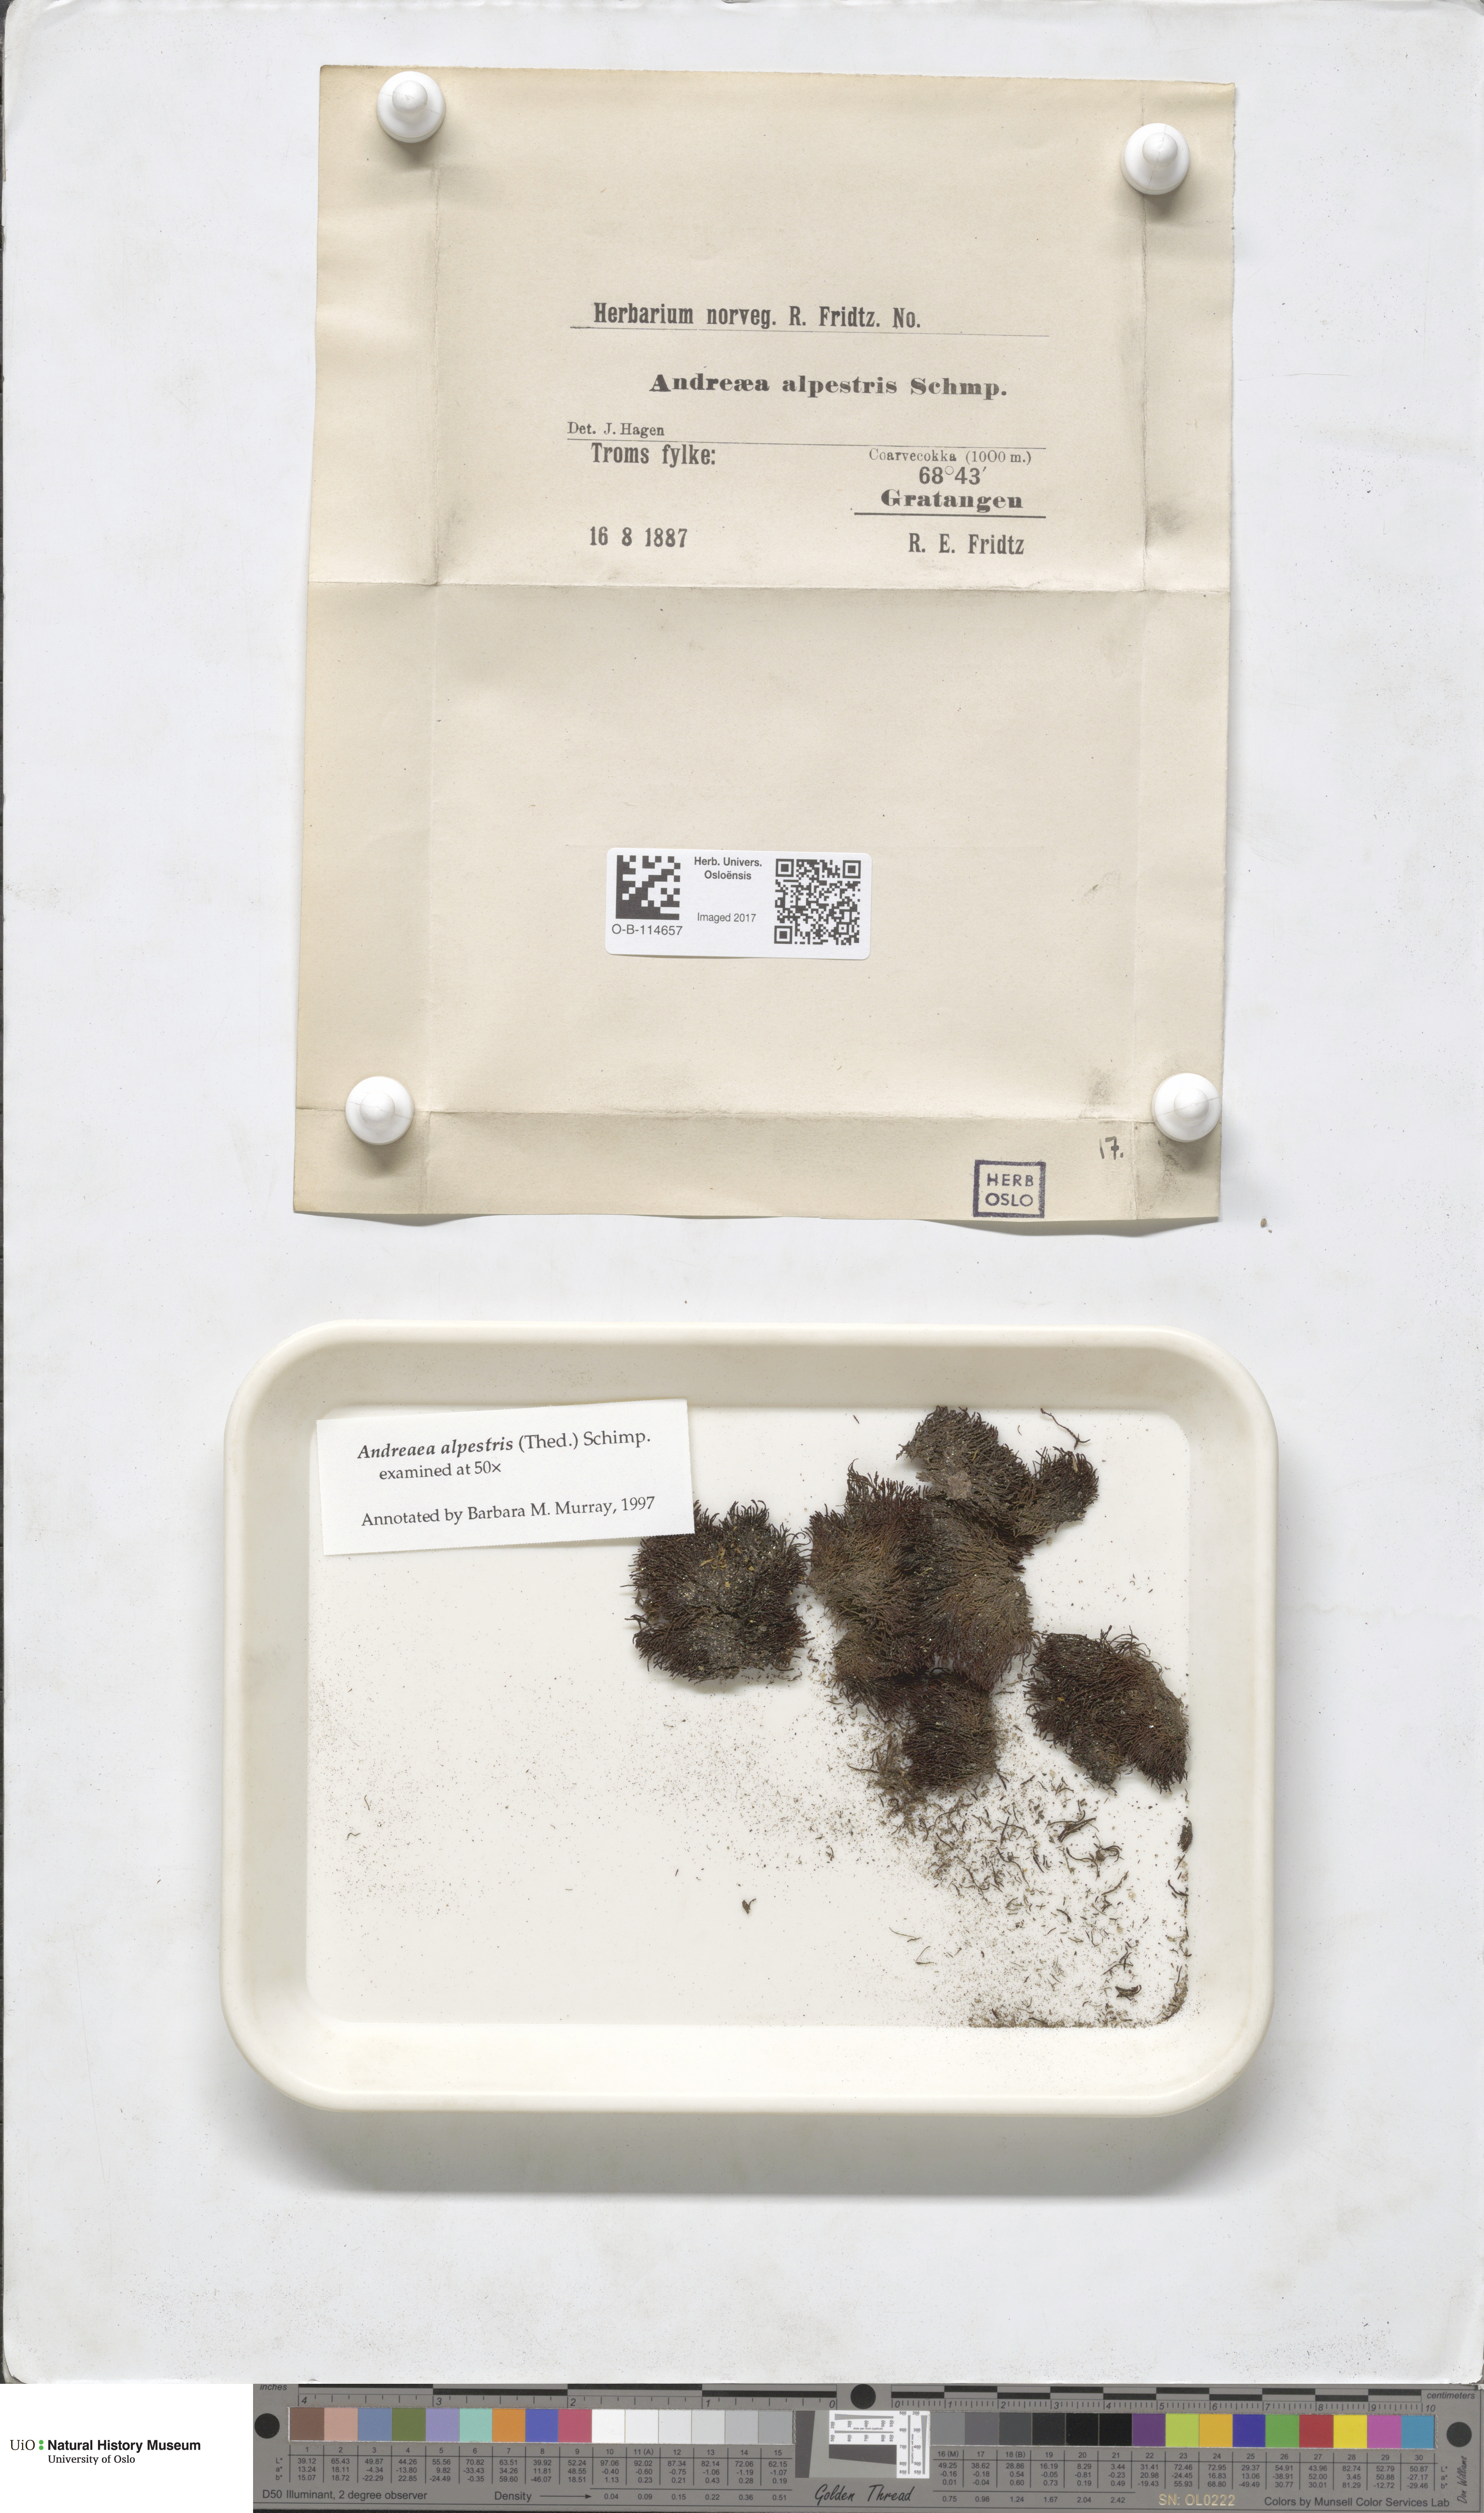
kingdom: Plantae
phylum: Bryophyta
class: Andreaeopsida
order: Andreaeales
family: Andreaeaceae
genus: Andreaea
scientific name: Andreaea alpestris
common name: Slender rock-moss
